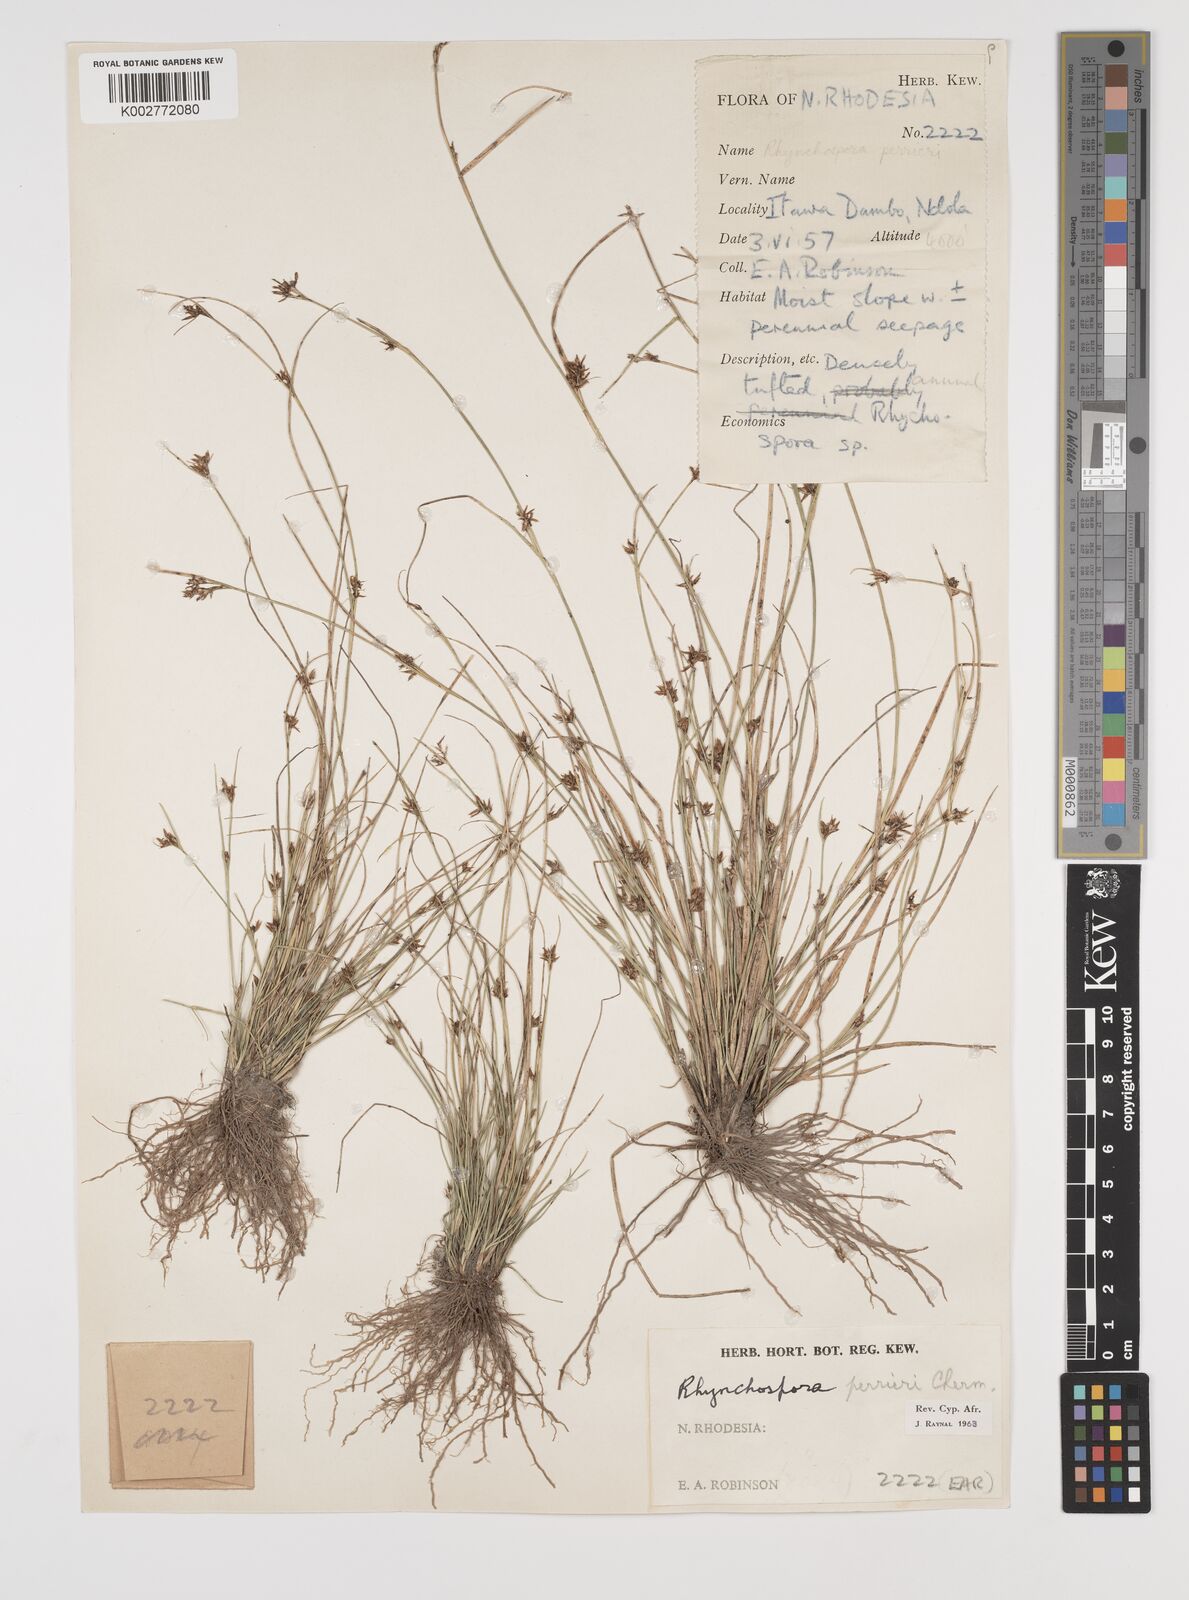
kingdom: Plantae
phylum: Tracheophyta
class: Liliopsida
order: Poales
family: Cyperaceae
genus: Rhynchospora
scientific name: Rhynchospora perrieri
